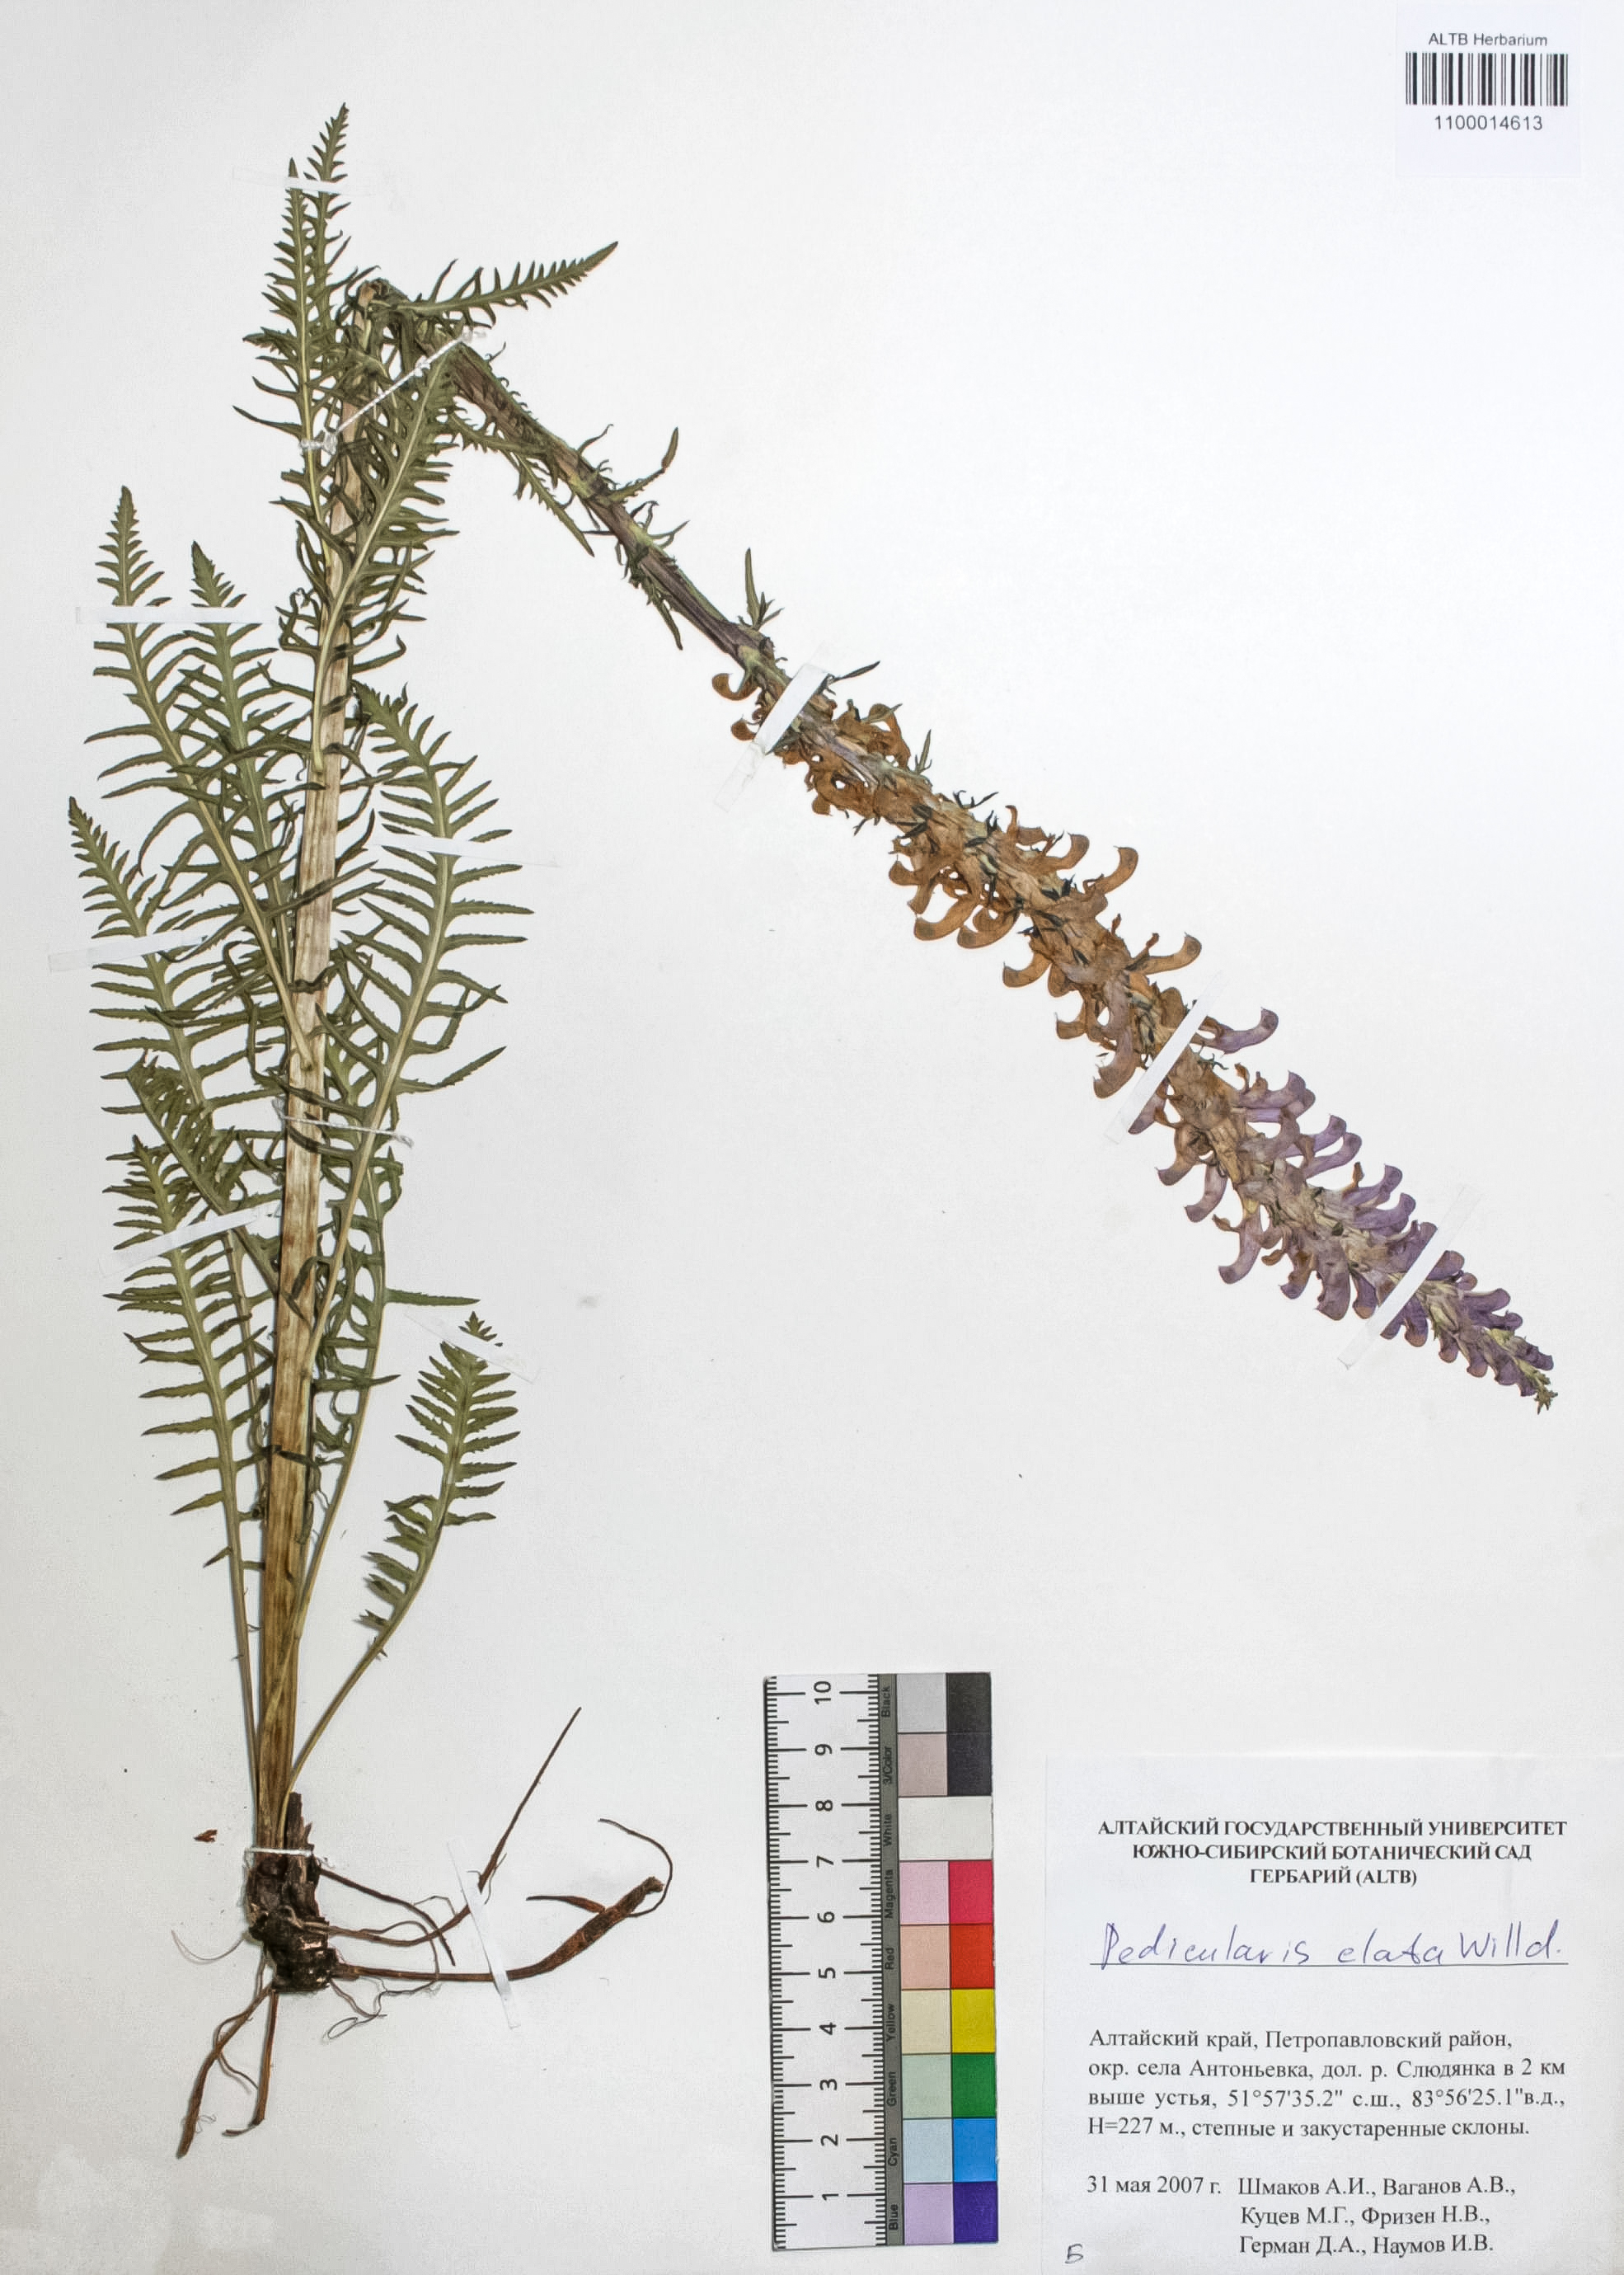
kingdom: Plantae
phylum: Tracheophyta
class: Magnoliopsida
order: Lamiales
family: Orobanchaceae
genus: Pedicularis
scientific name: Pedicularis elata
